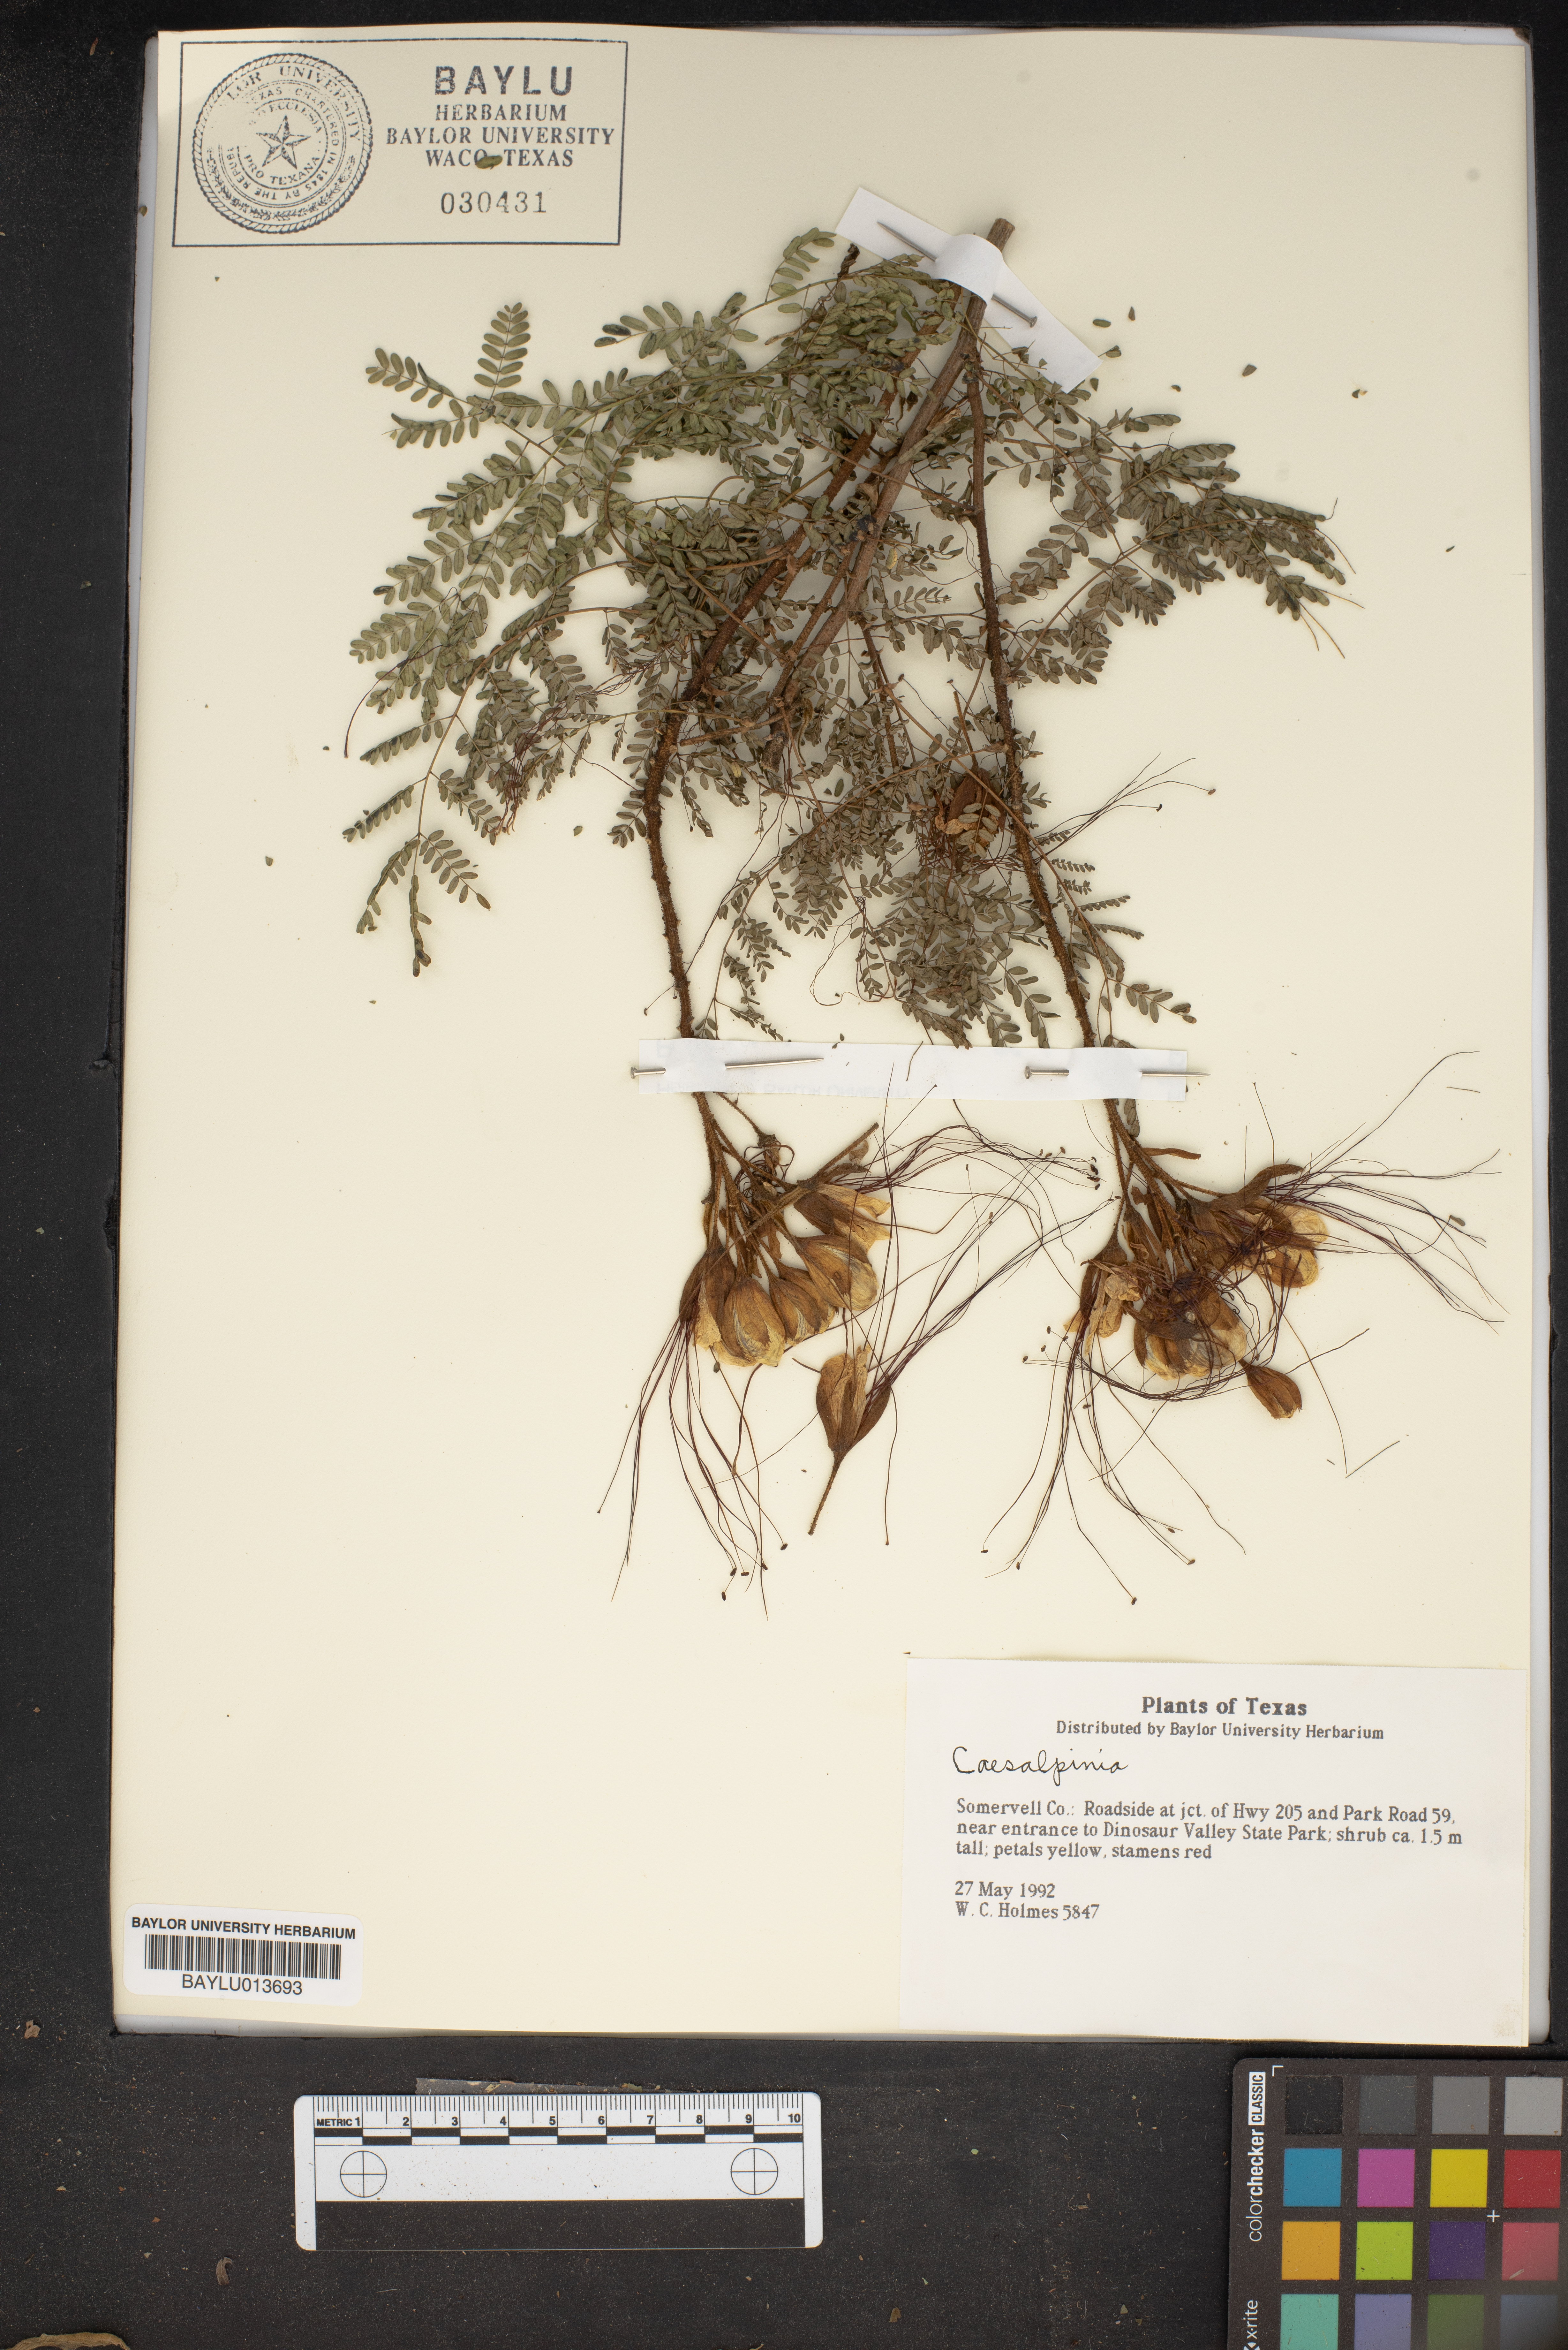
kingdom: Plantae
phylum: Tracheophyta
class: Magnoliopsida
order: Fabales
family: Fabaceae
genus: Caesalpinia
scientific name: Caesalpinia
